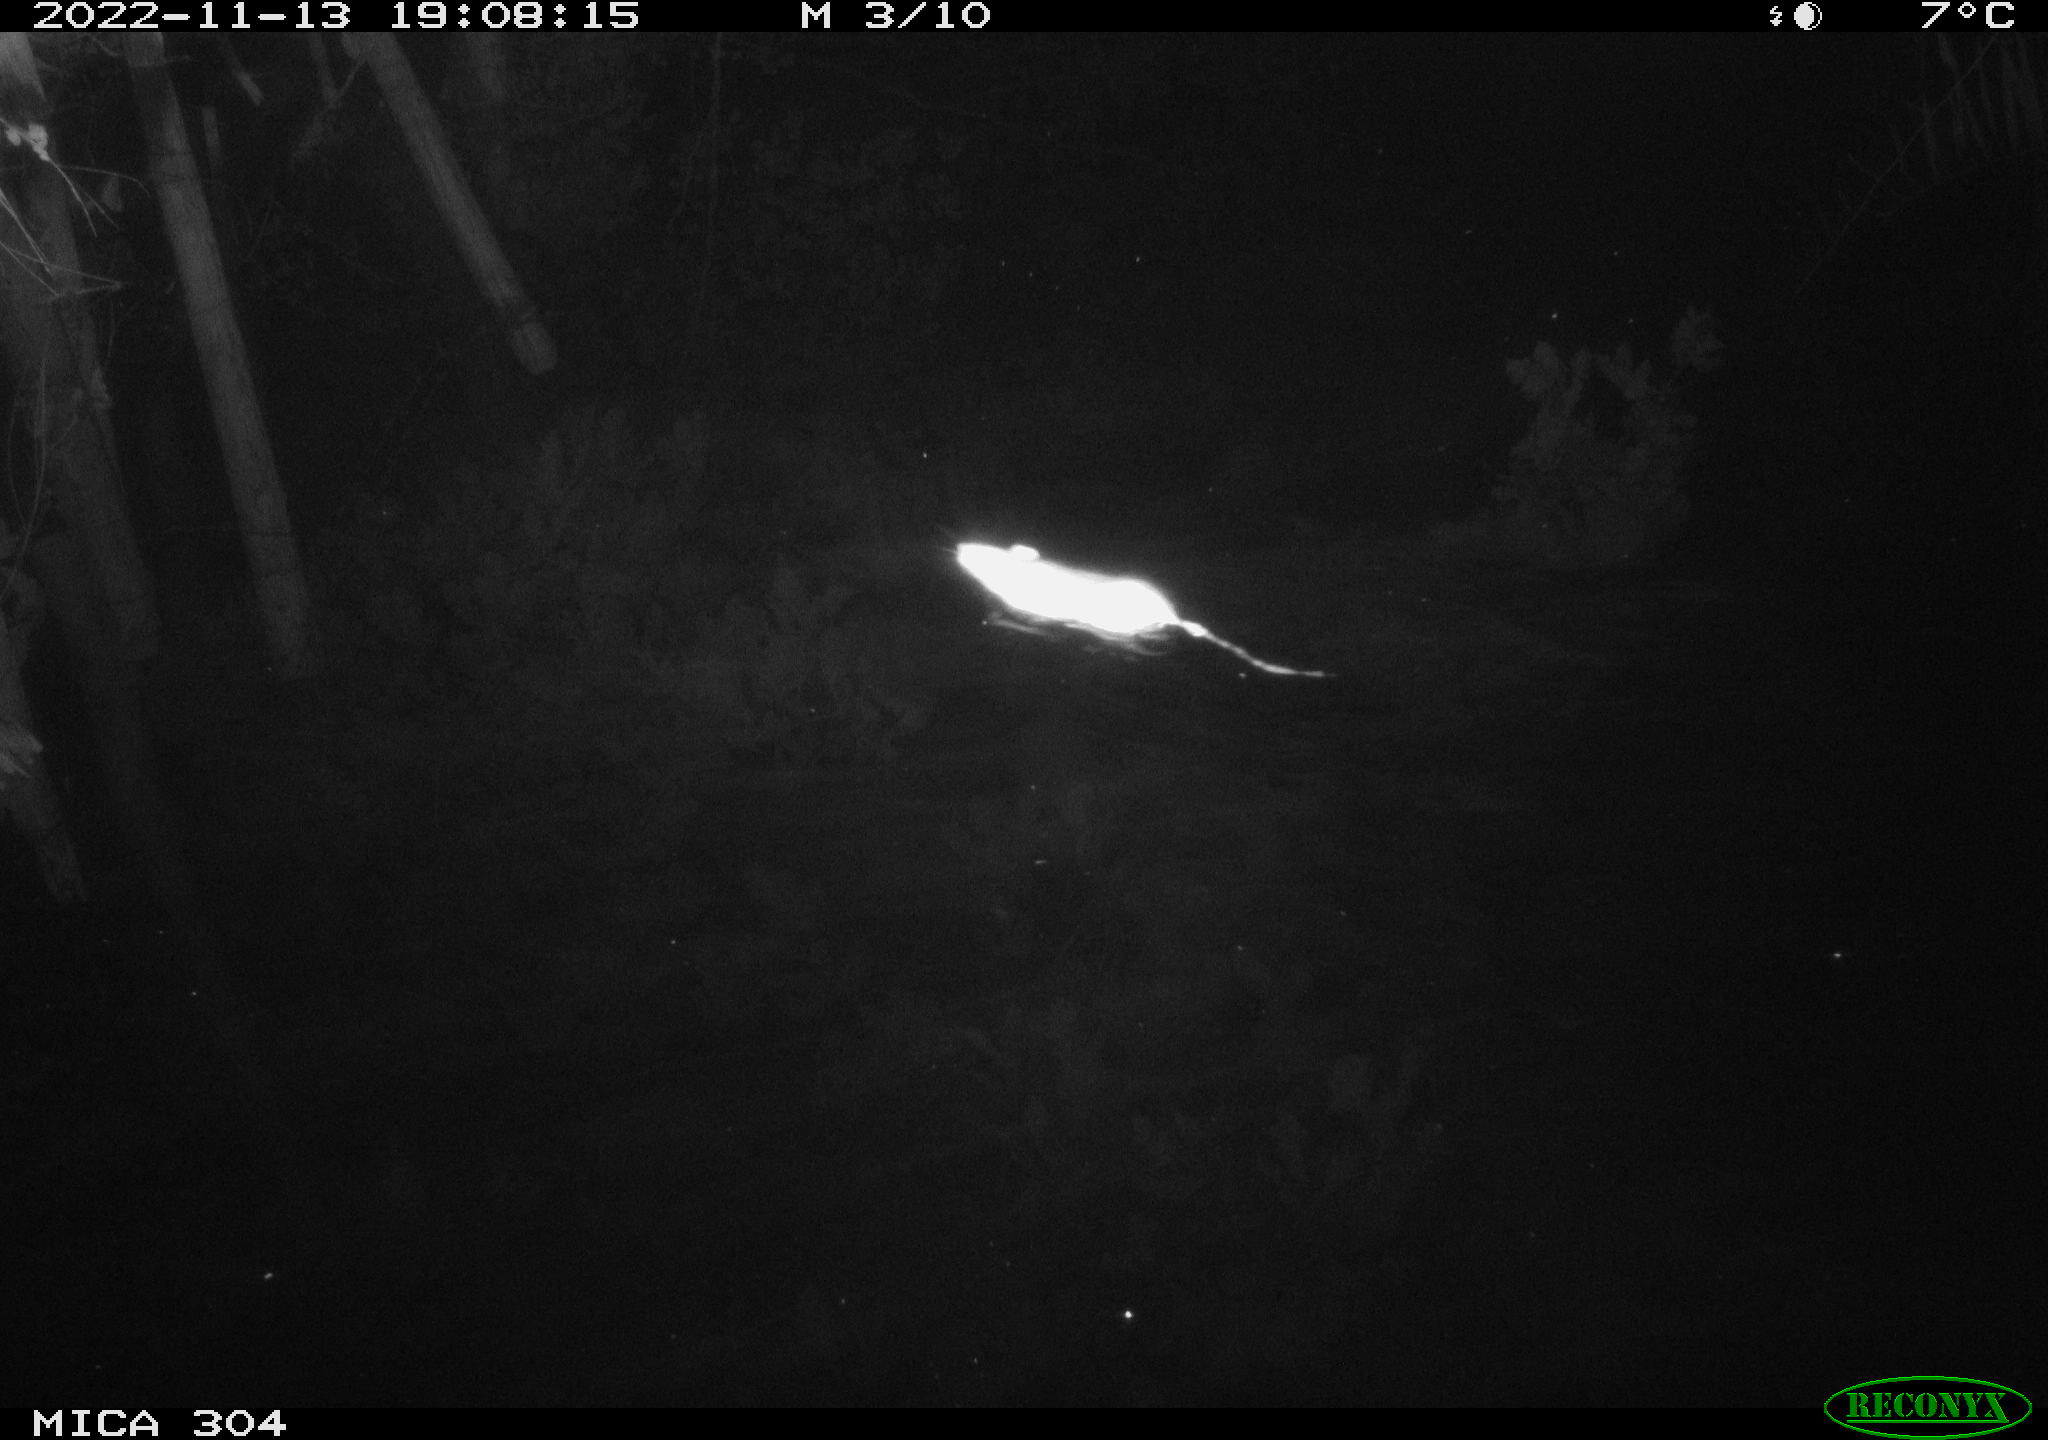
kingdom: Animalia
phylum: Chordata
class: Mammalia
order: Rodentia
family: Muridae
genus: Rattus
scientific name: Rattus norvegicus
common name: Brown rat
